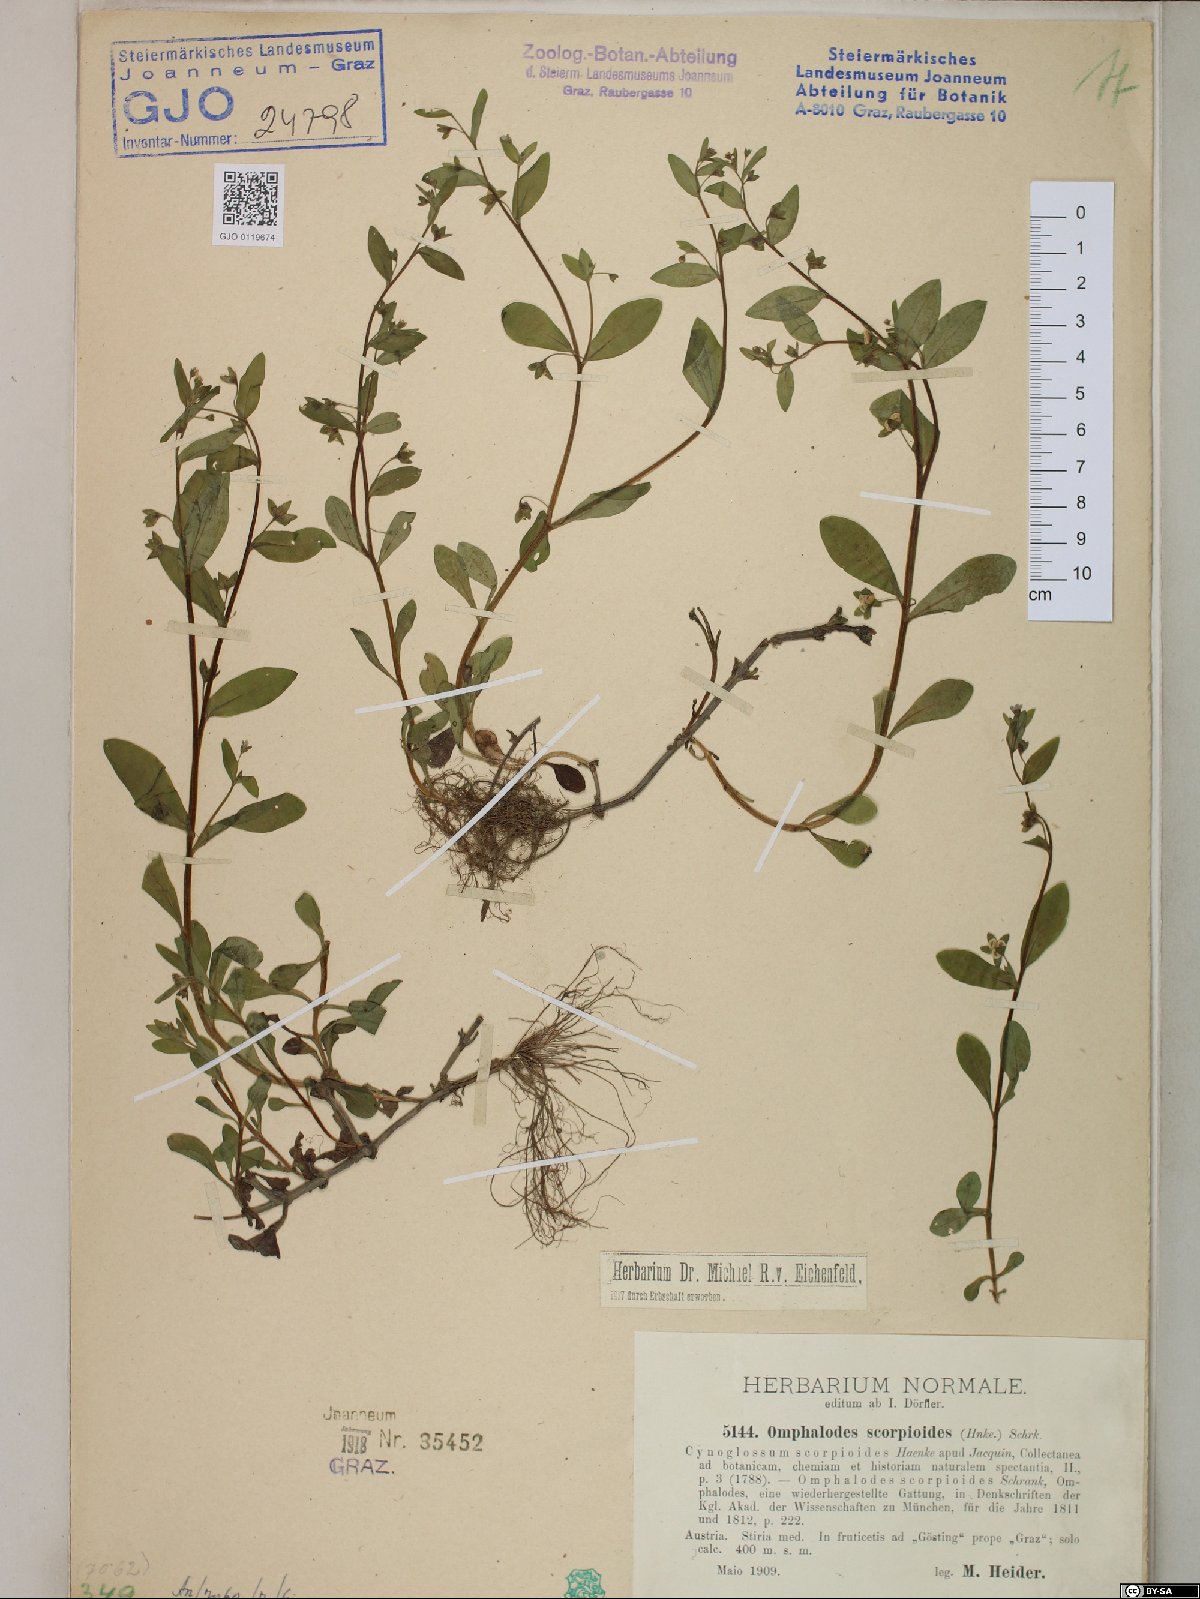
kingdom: Plantae
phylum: Tracheophyta
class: Magnoliopsida
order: Boraginales
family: Boraginaceae
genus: Memoremea
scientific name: Memoremea scorpioides
